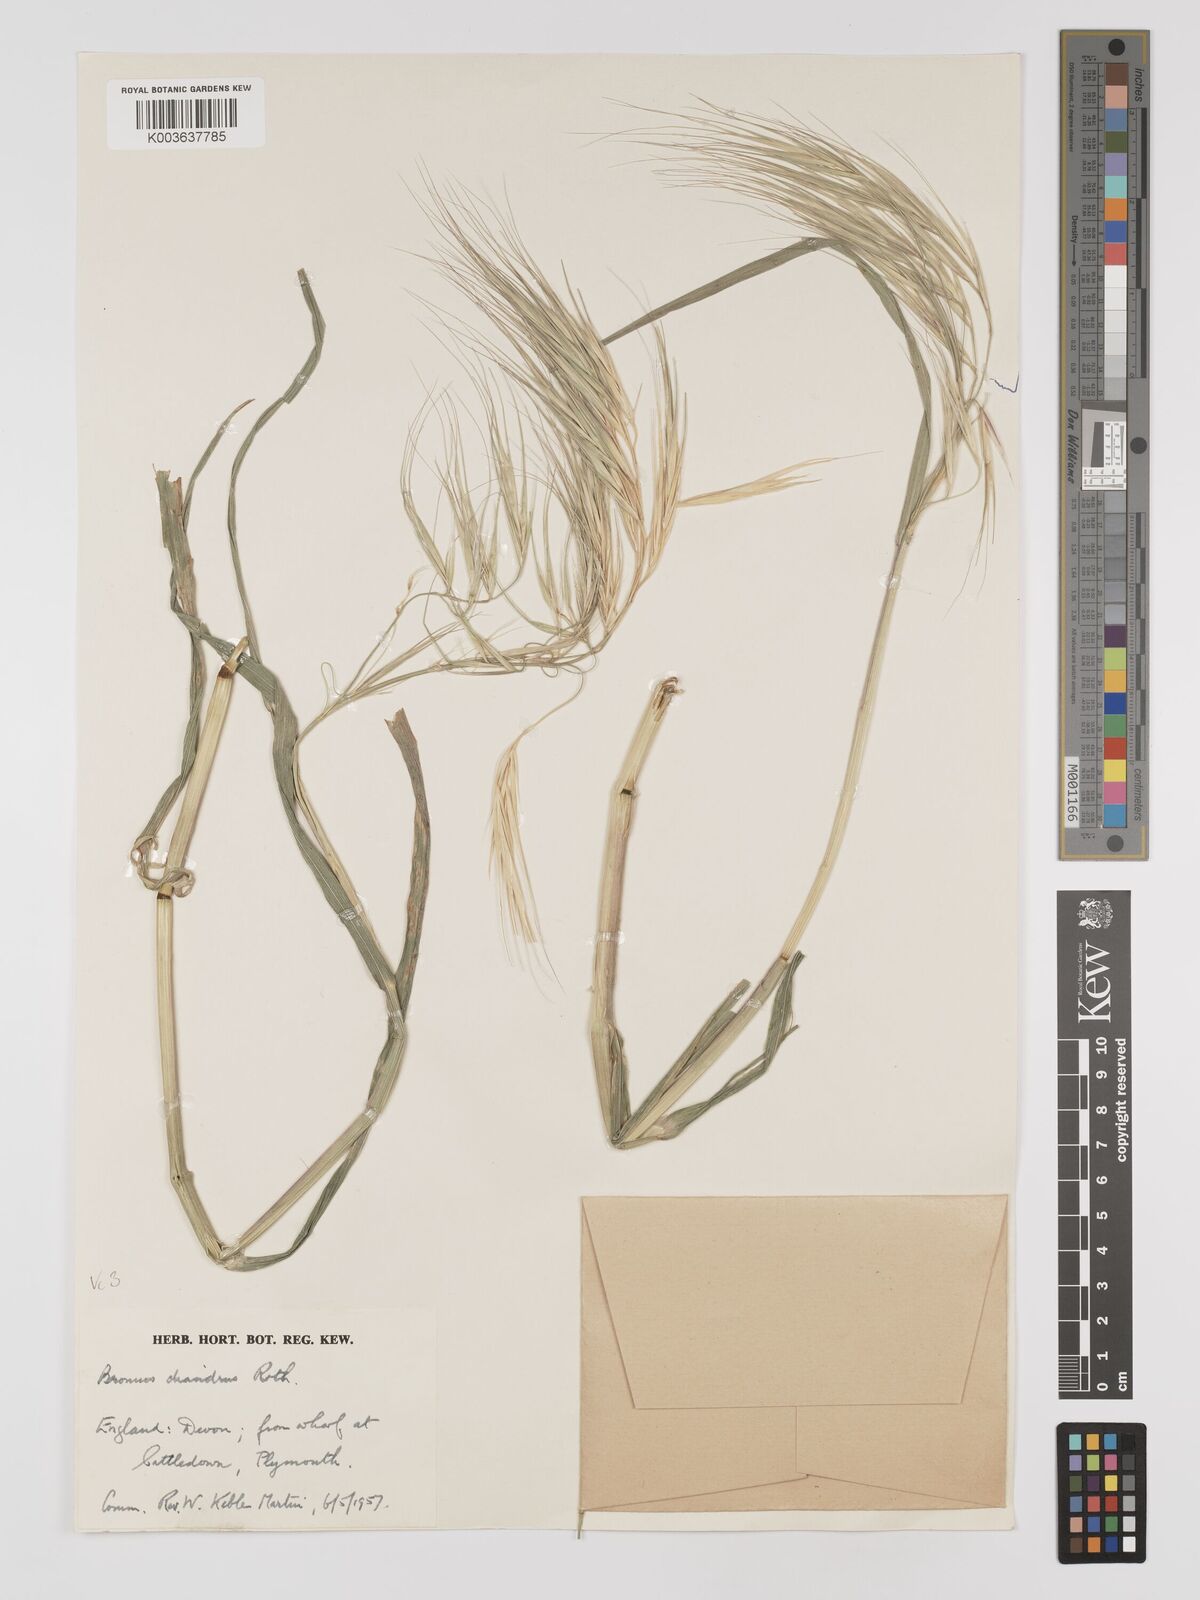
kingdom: Plantae
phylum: Tracheophyta
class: Liliopsida
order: Poales
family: Poaceae
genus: Bromus
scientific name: Bromus
